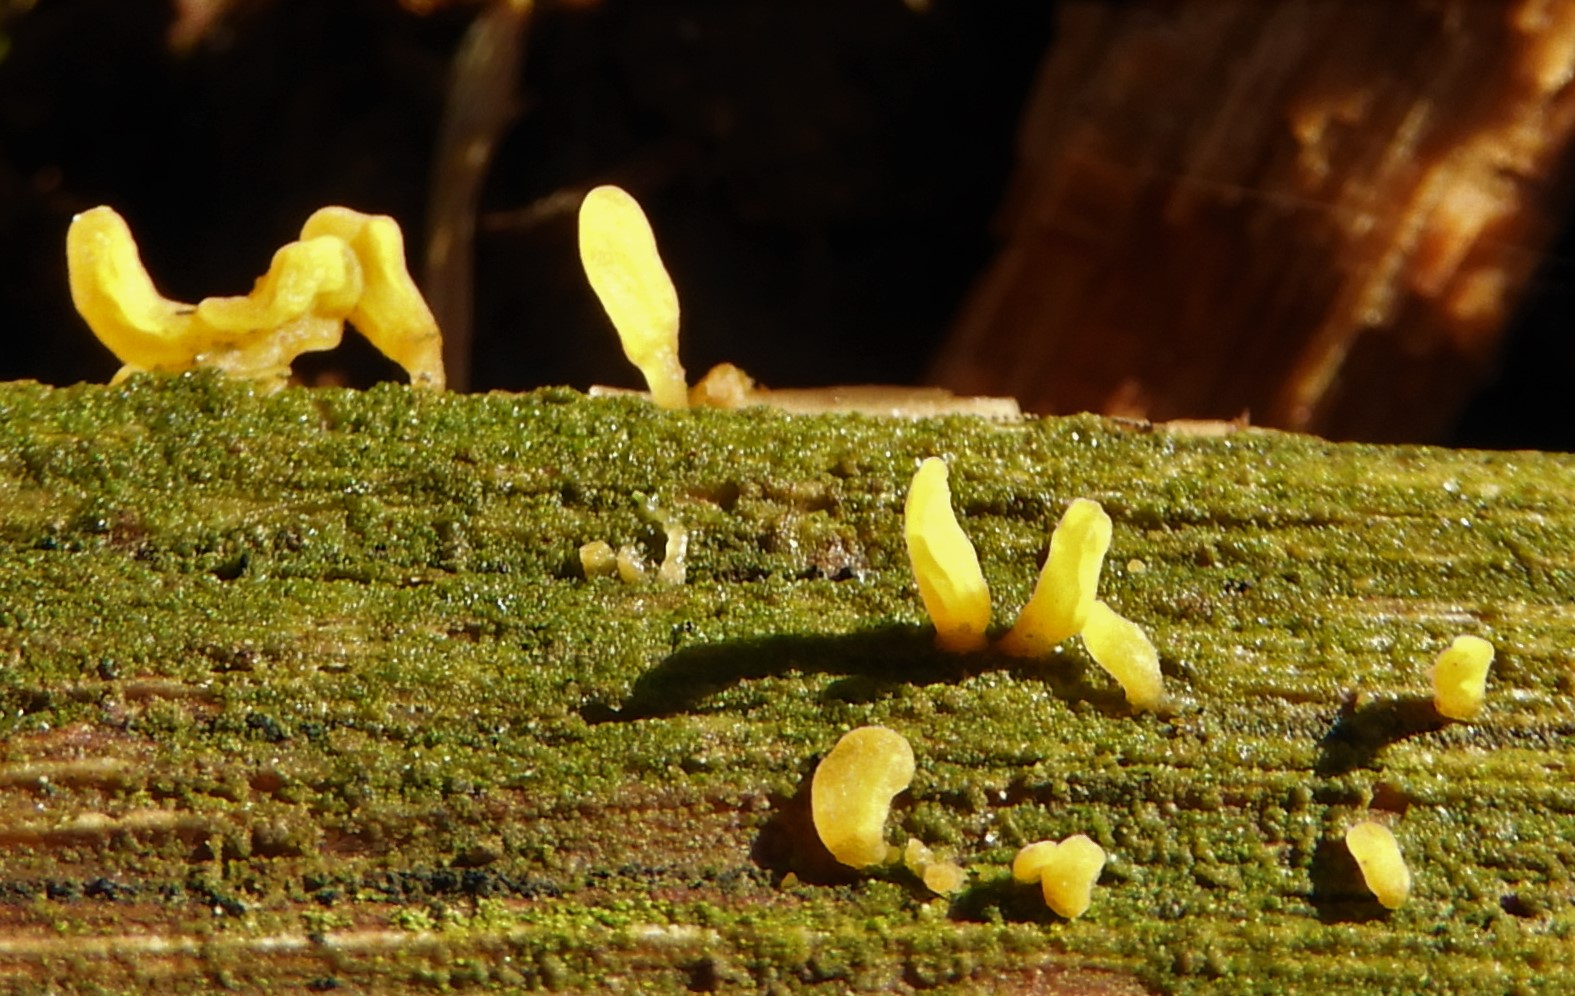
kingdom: Fungi
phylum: Basidiomycota
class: Dacrymycetes
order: Dacrymycetales
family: Dacrymycetaceae
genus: Calocera
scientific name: Calocera
